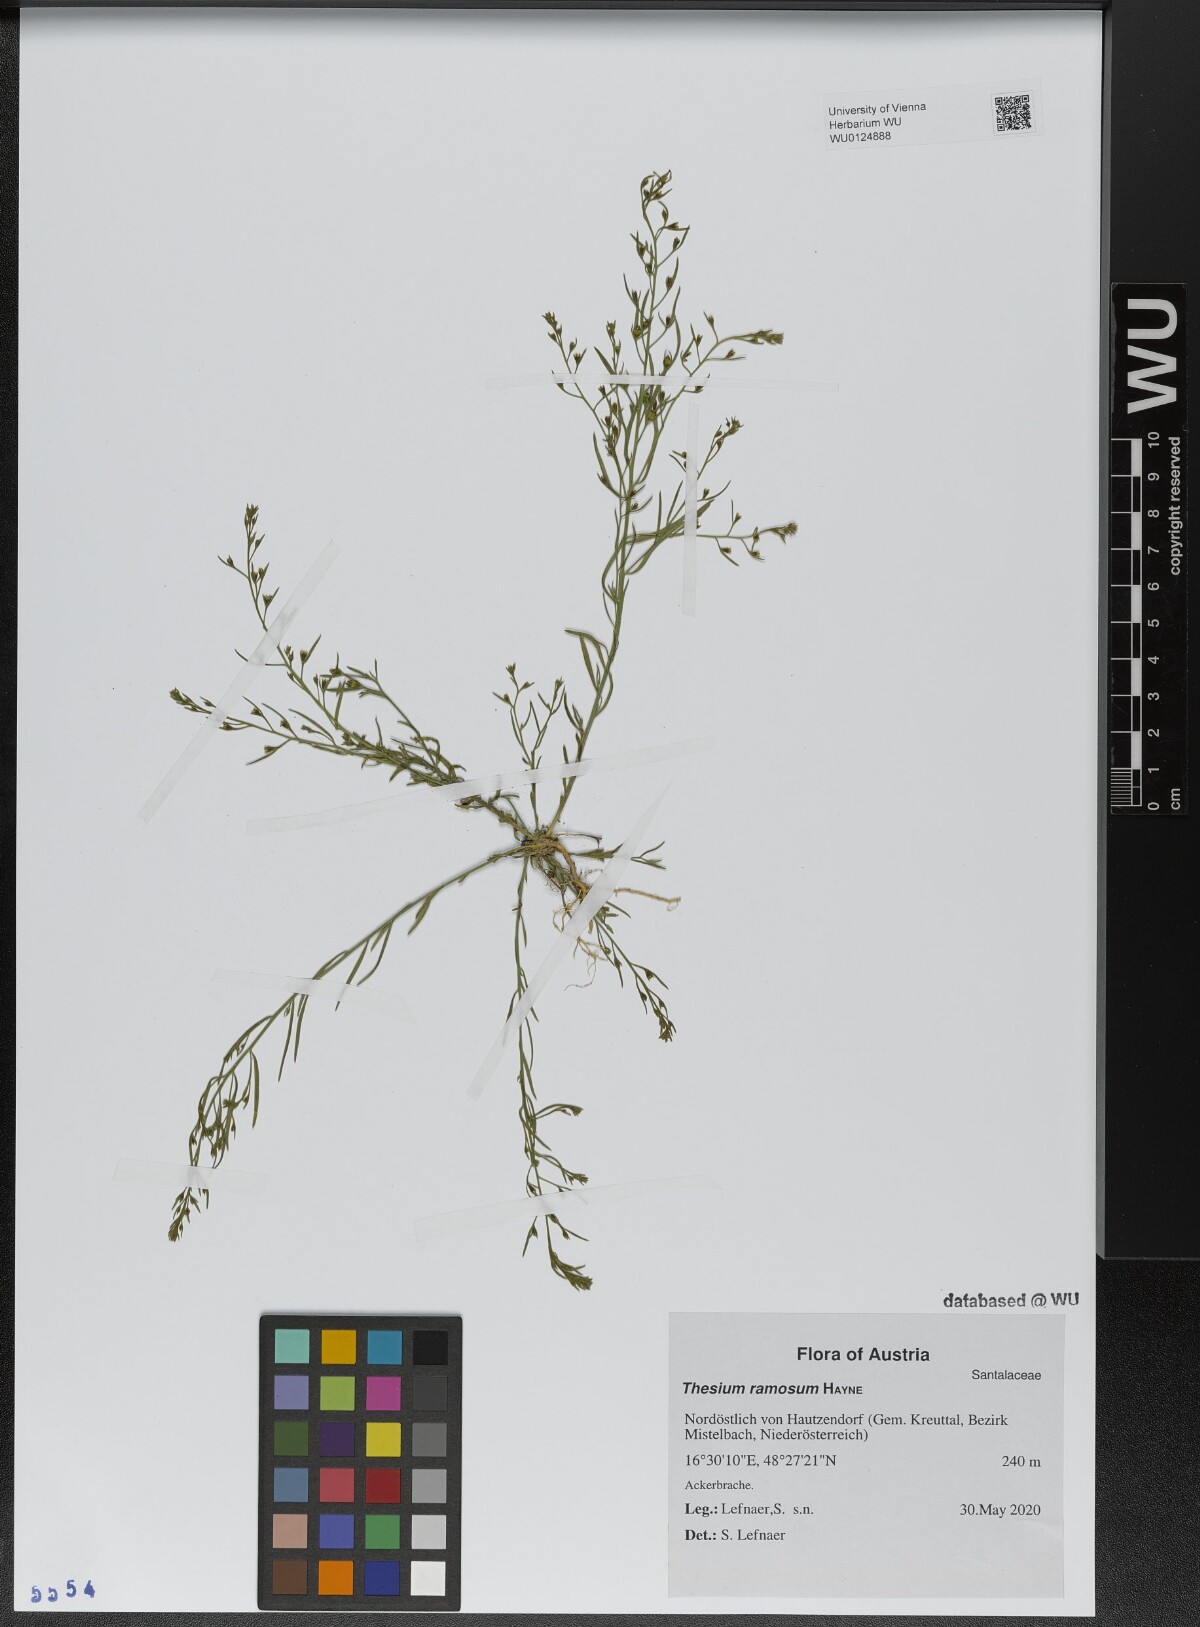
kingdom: Plantae
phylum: Tracheophyta
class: Magnoliopsida
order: Santalales
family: Thesiaceae
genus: Thesium
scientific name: Thesium ramosum
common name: Field thesium
